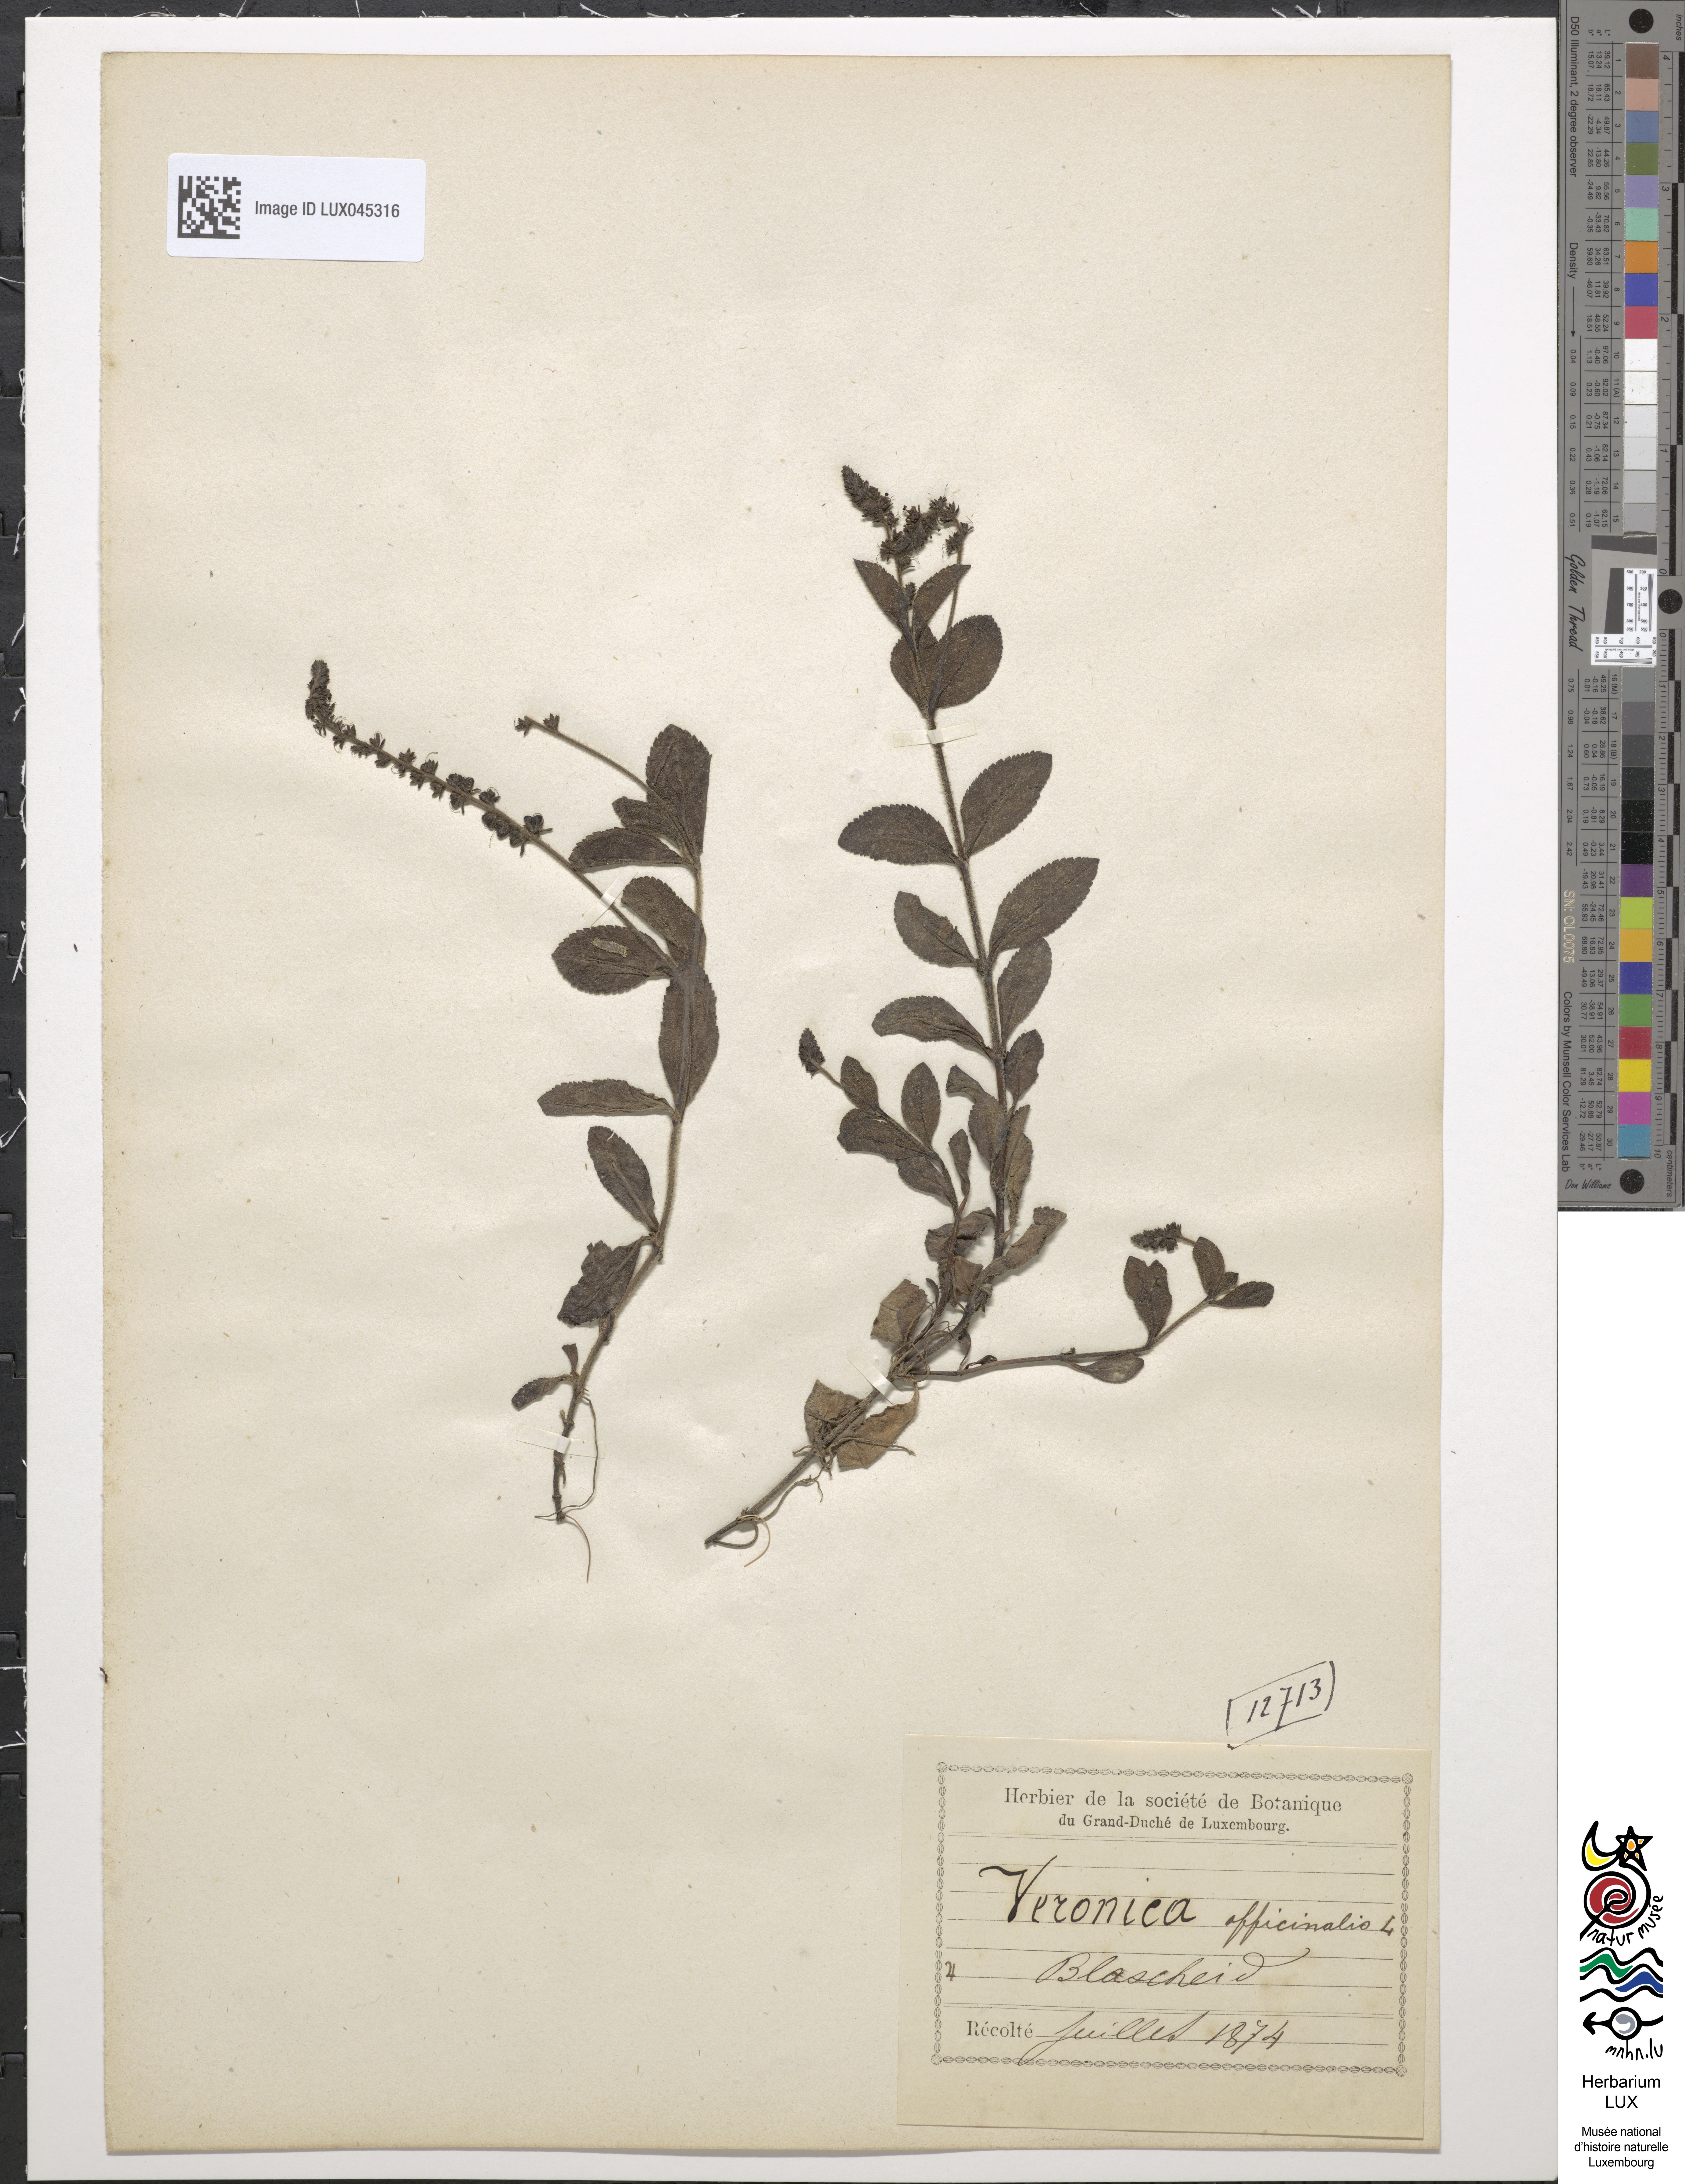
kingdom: Plantae
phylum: Tracheophyta
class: Magnoliopsida
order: Lamiales
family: Plantaginaceae
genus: Veronica
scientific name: Veronica officinalis
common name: Common speedwell
